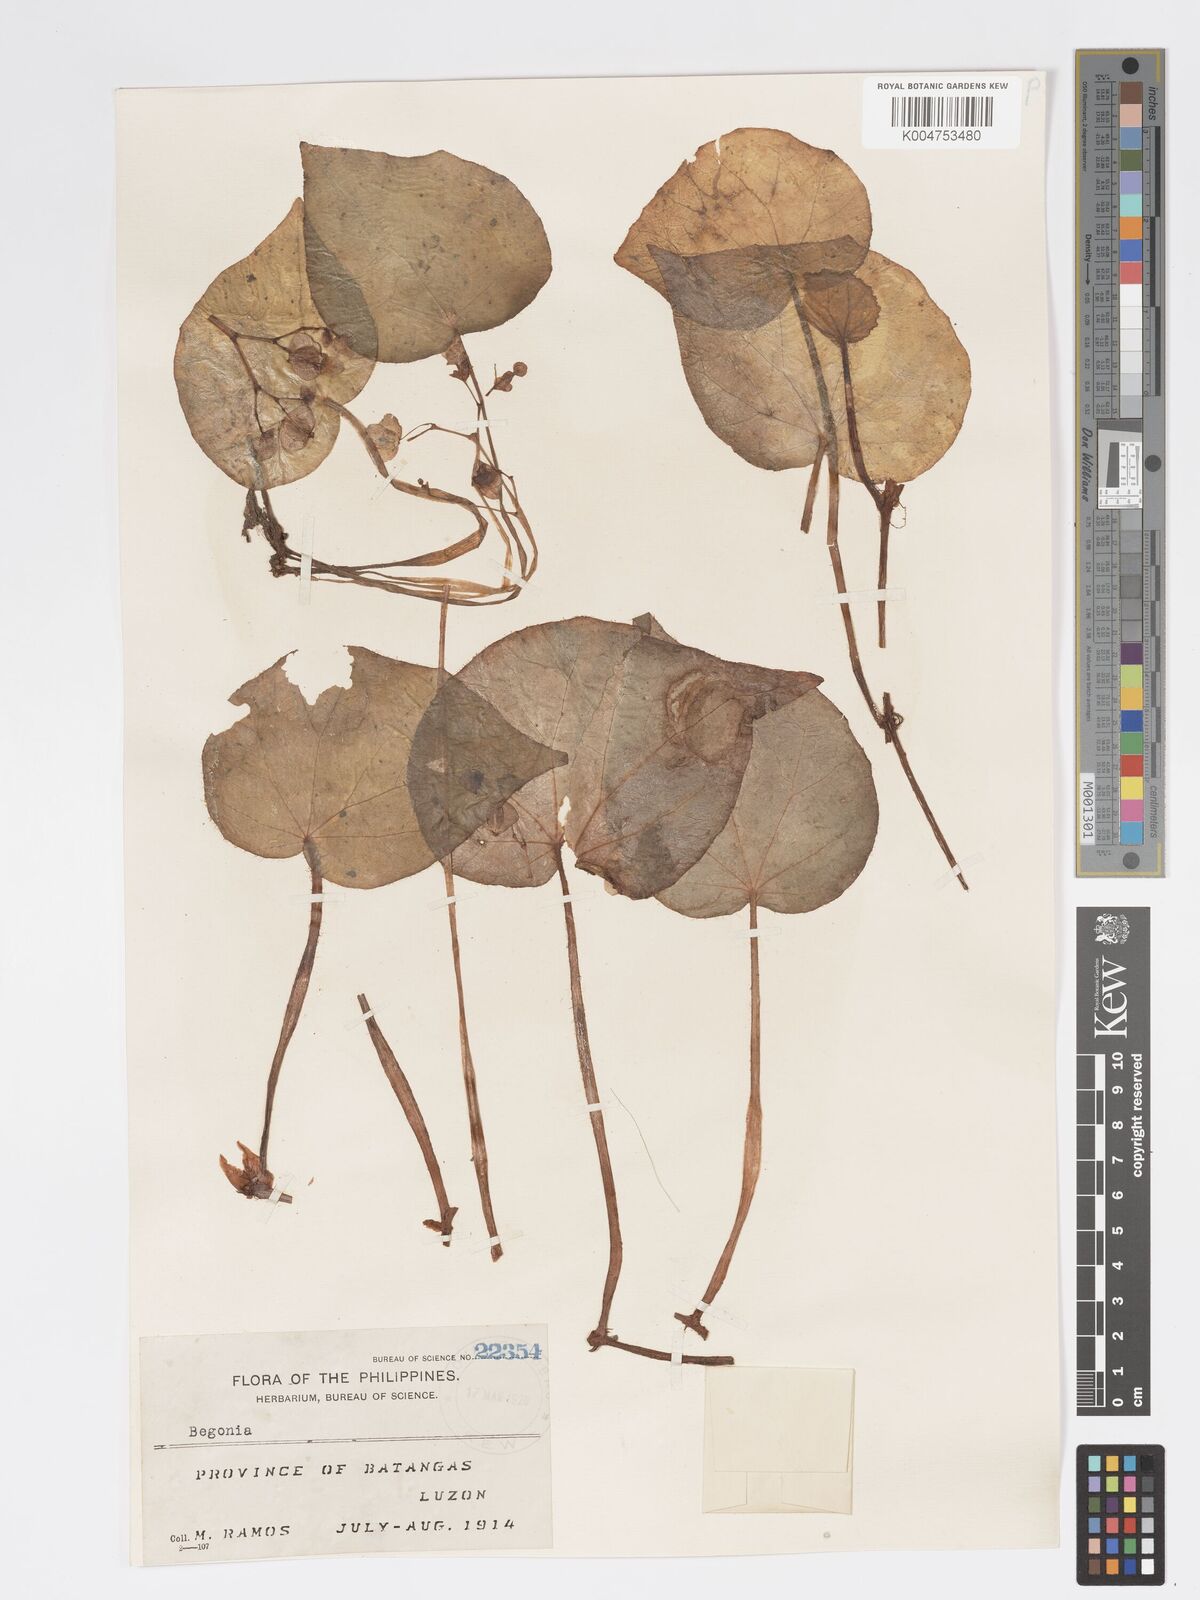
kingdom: Plantae
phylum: Tracheophyta
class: Magnoliopsida
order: Cucurbitales
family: Begoniaceae
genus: Begonia
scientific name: Begonia
